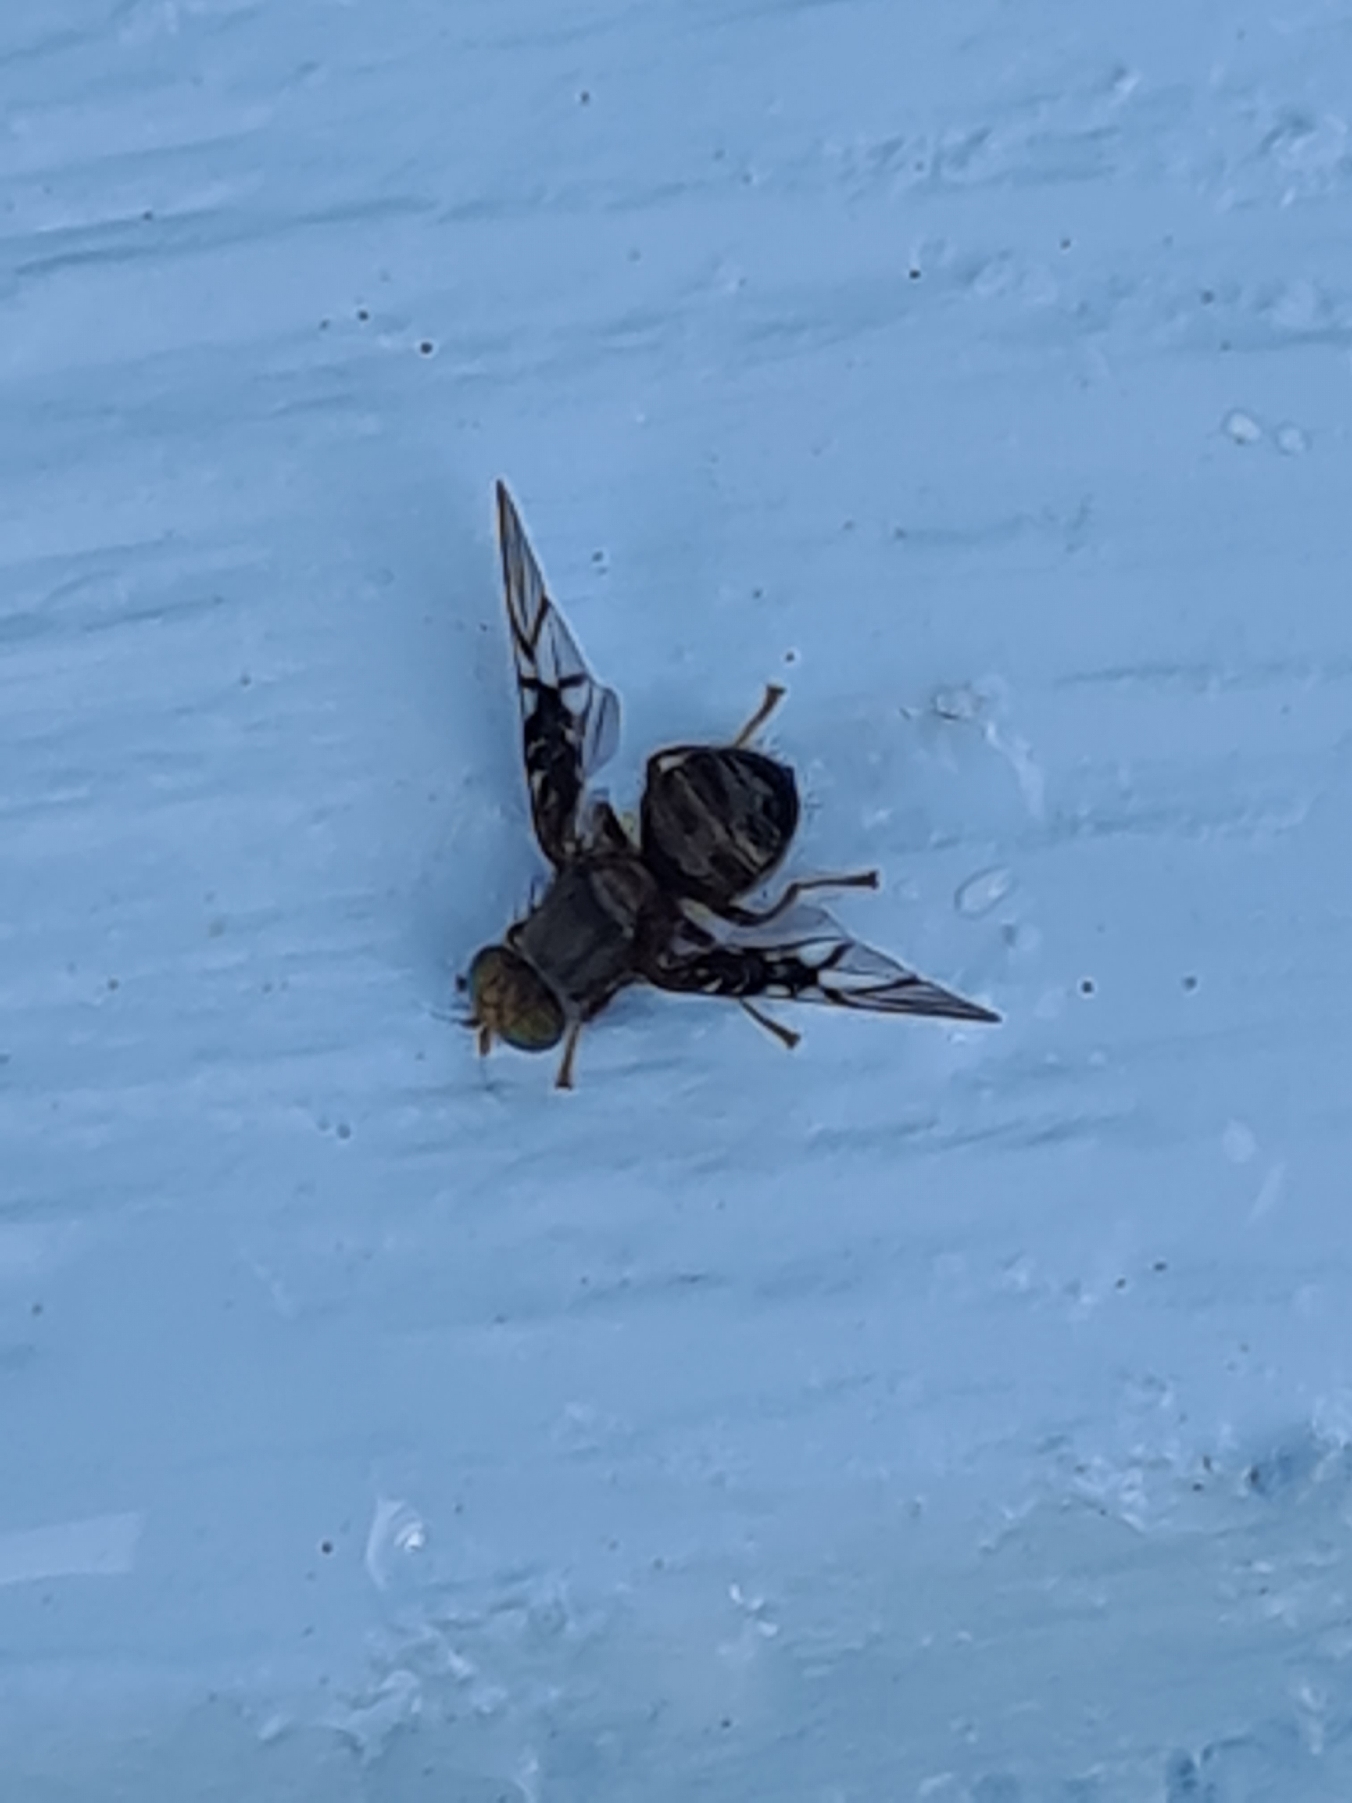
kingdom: Animalia
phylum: Arthropoda
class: Insecta
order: Diptera
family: Tephritidae
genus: Anomoia
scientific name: Anomoia purmunda
